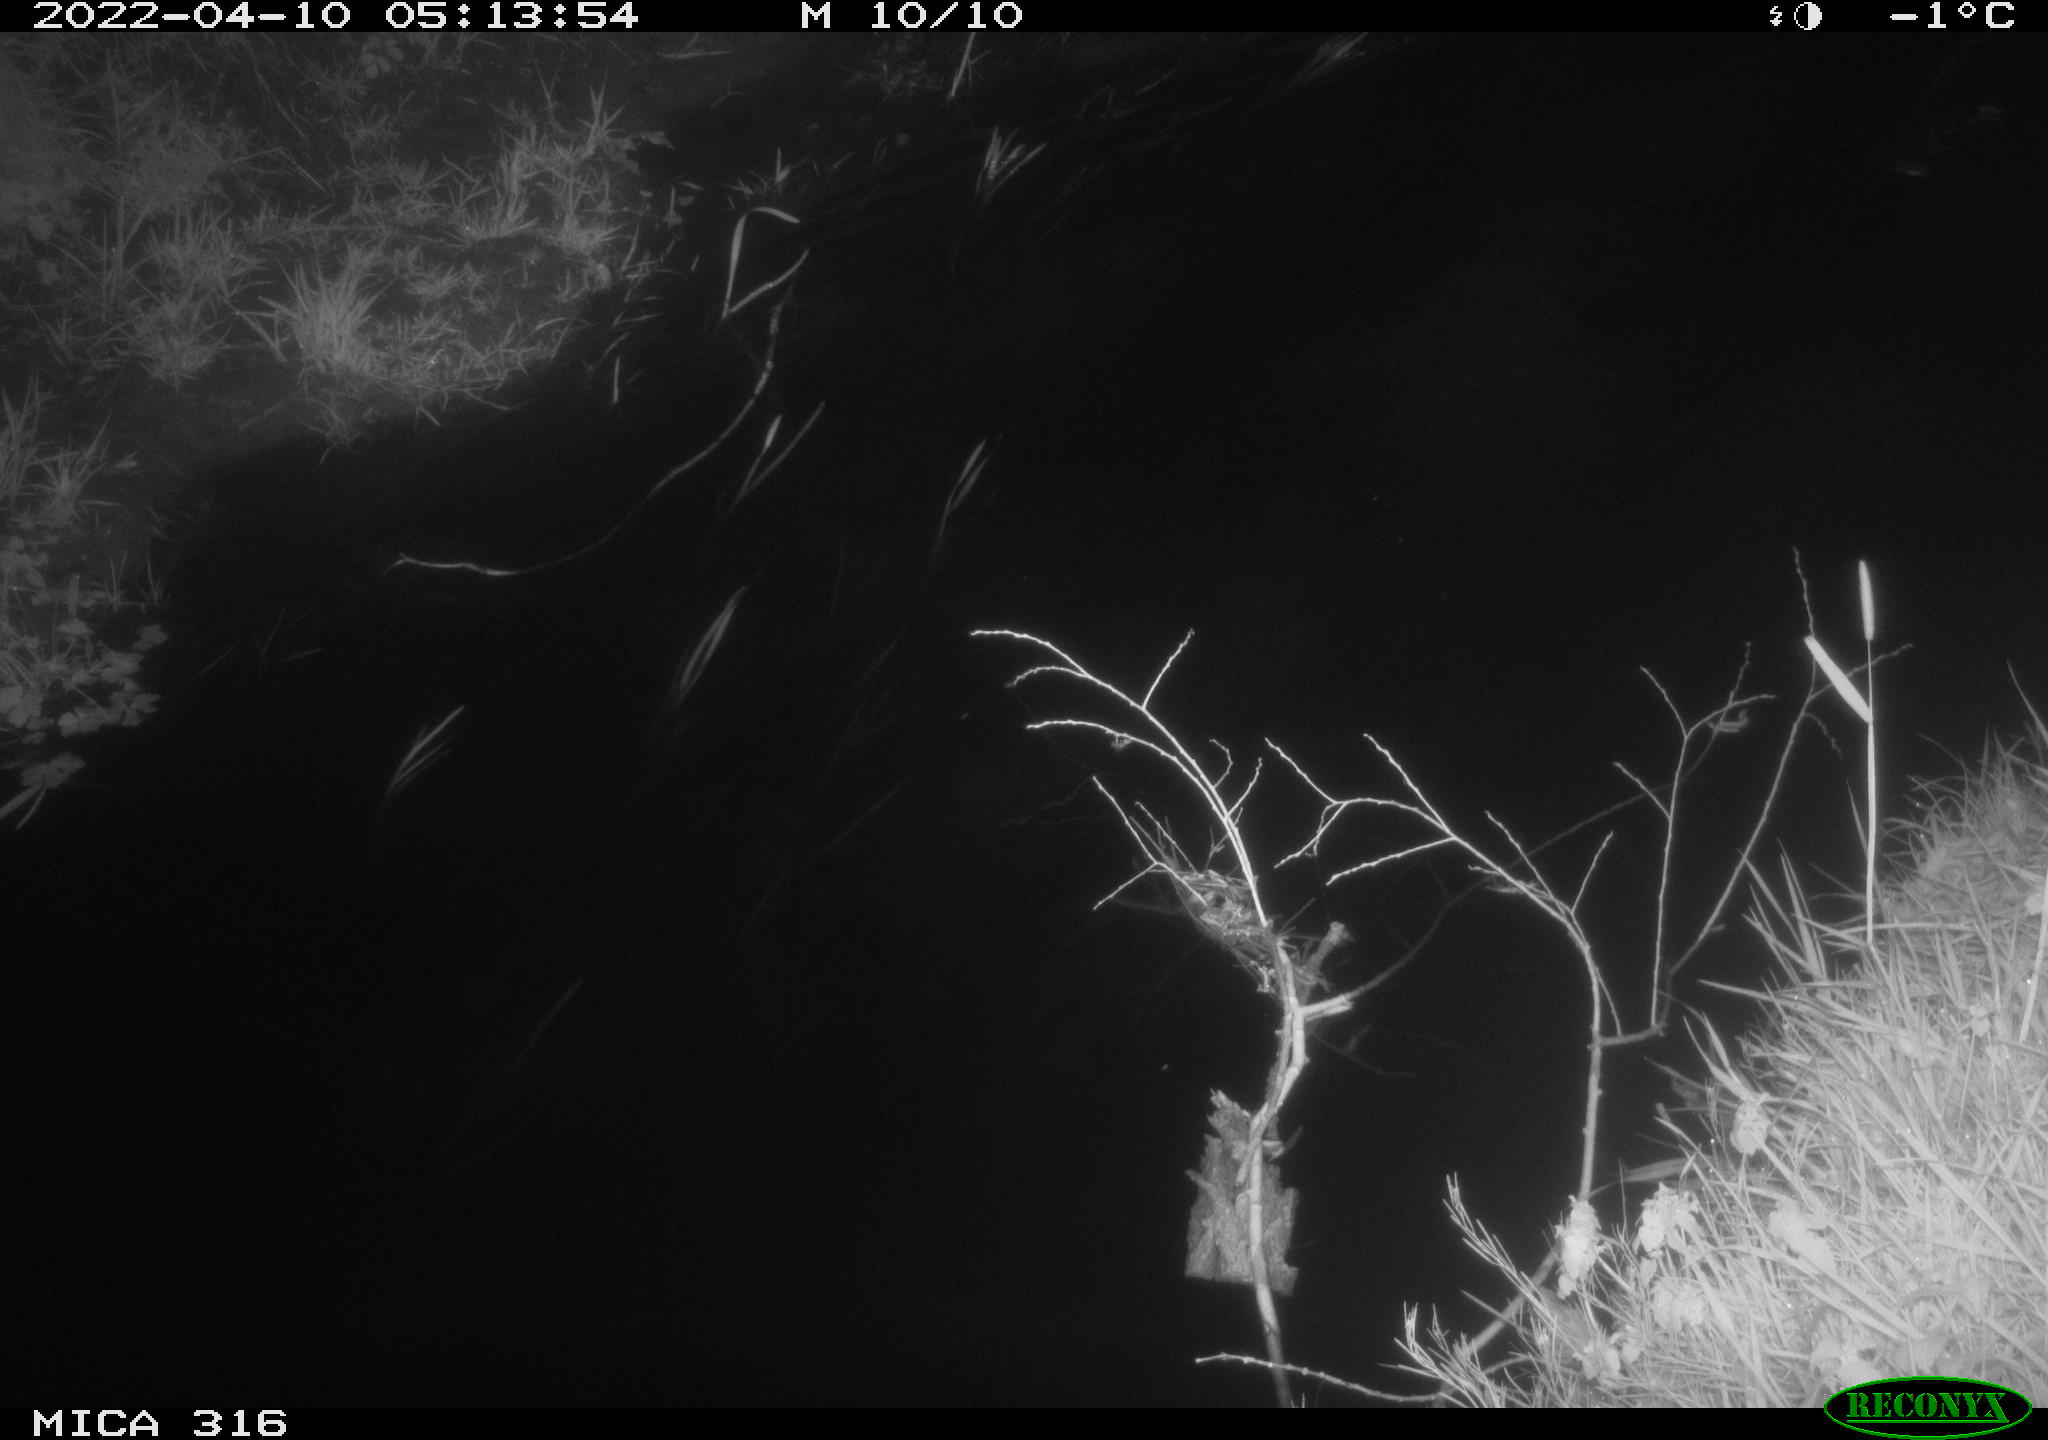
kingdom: Animalia
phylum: Chordata
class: Aves
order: Anseriformes
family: Anatidae
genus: Anas
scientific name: Anas platyrhynchos
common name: Mallard
